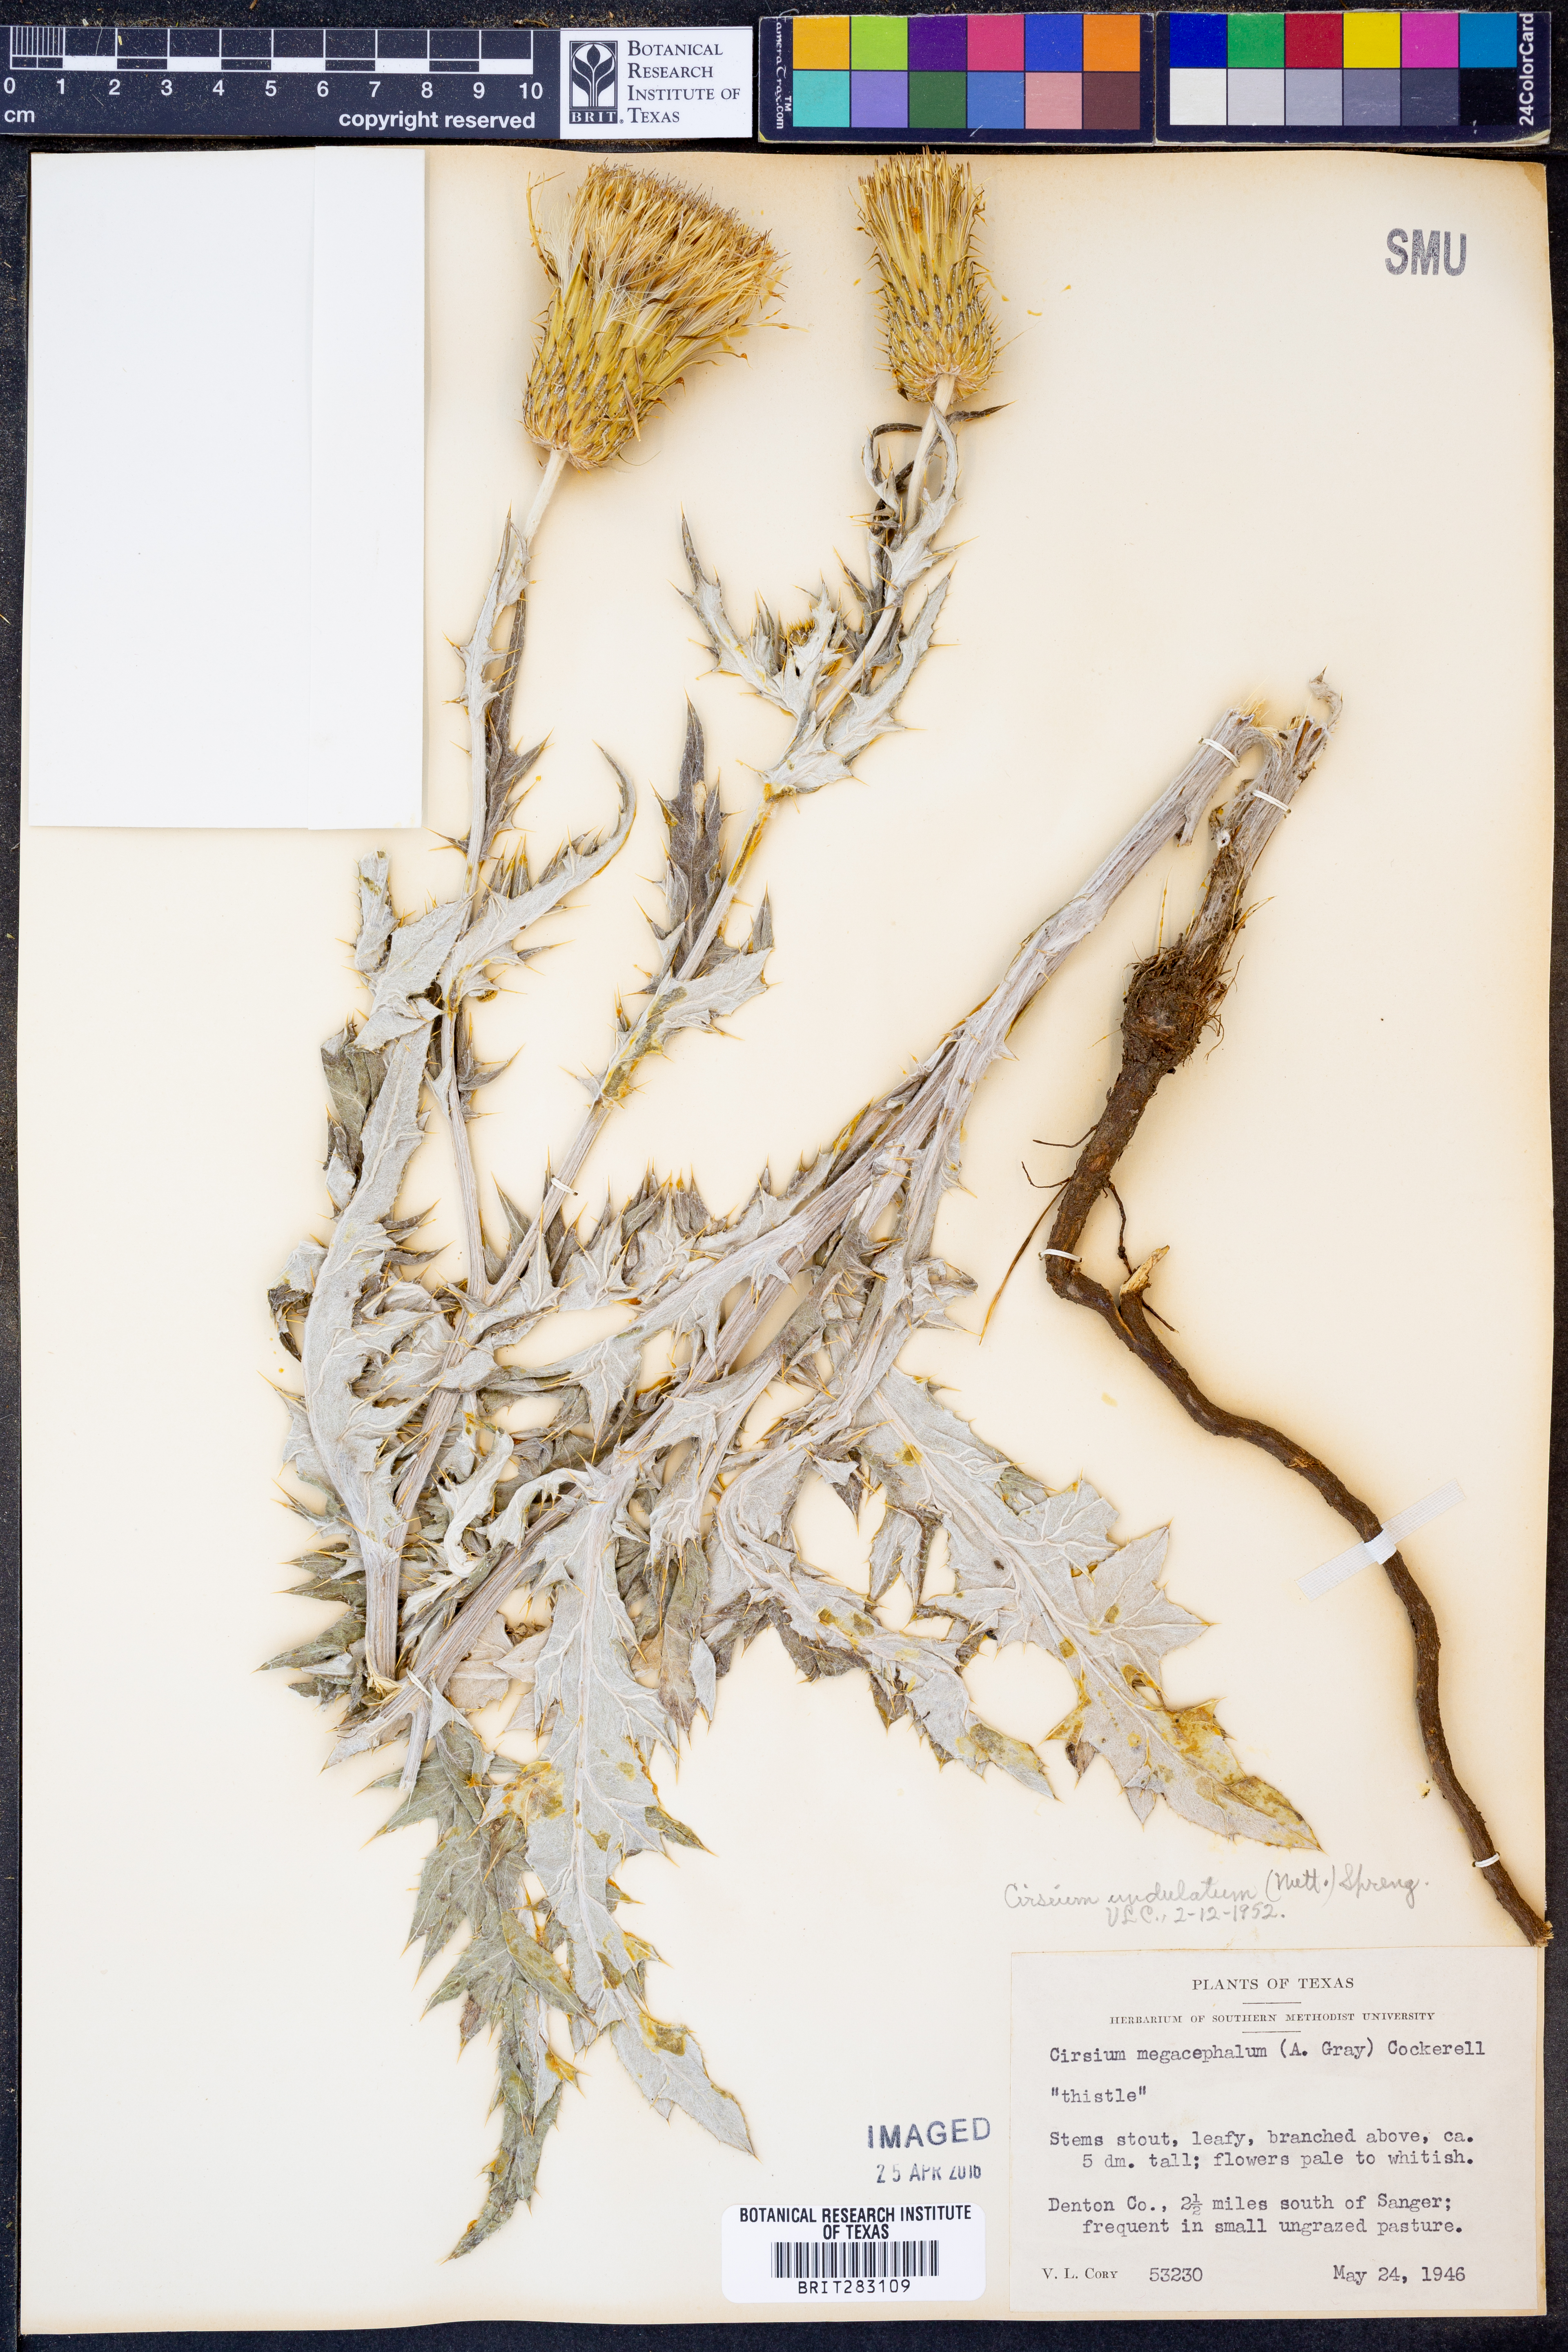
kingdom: Plantae
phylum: Tracheophyta
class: Magnoliopsida
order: Asterales
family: Asteraceae
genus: Cirsium
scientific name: Cirsium undulatum
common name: Pasture thistle
